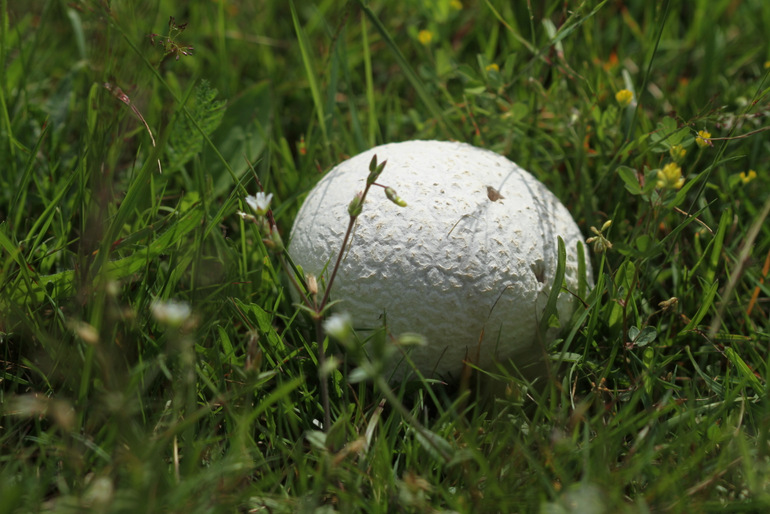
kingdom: Fungi
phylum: Basidiomycota
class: Agaricomycetes
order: Agaricales
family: Lycoperdaceae
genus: Bovistella
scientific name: Bovistella utriformis
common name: skællet støvbold
